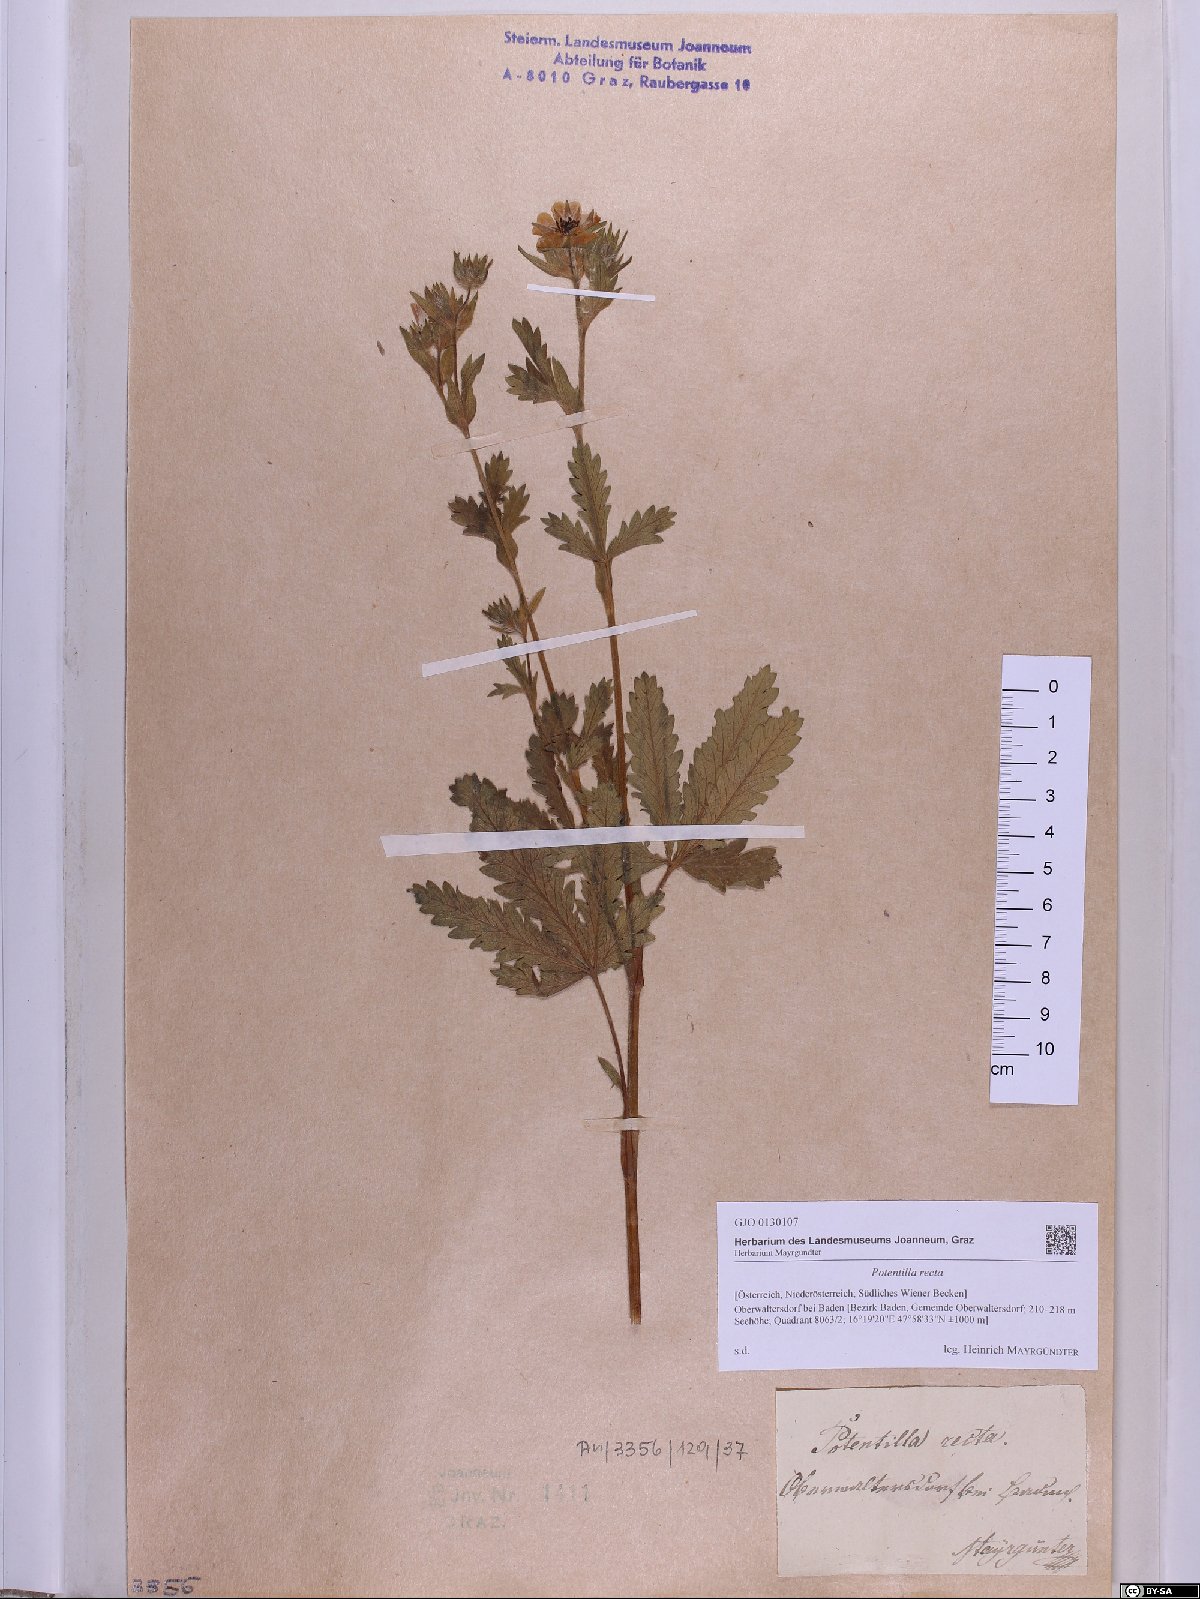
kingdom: Plantae
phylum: Tracheophyta
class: Magnoliopsida
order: Rosales
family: Rosaceae
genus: Potentilla
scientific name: Potentilla recta
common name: Sulphur cinquefoil
